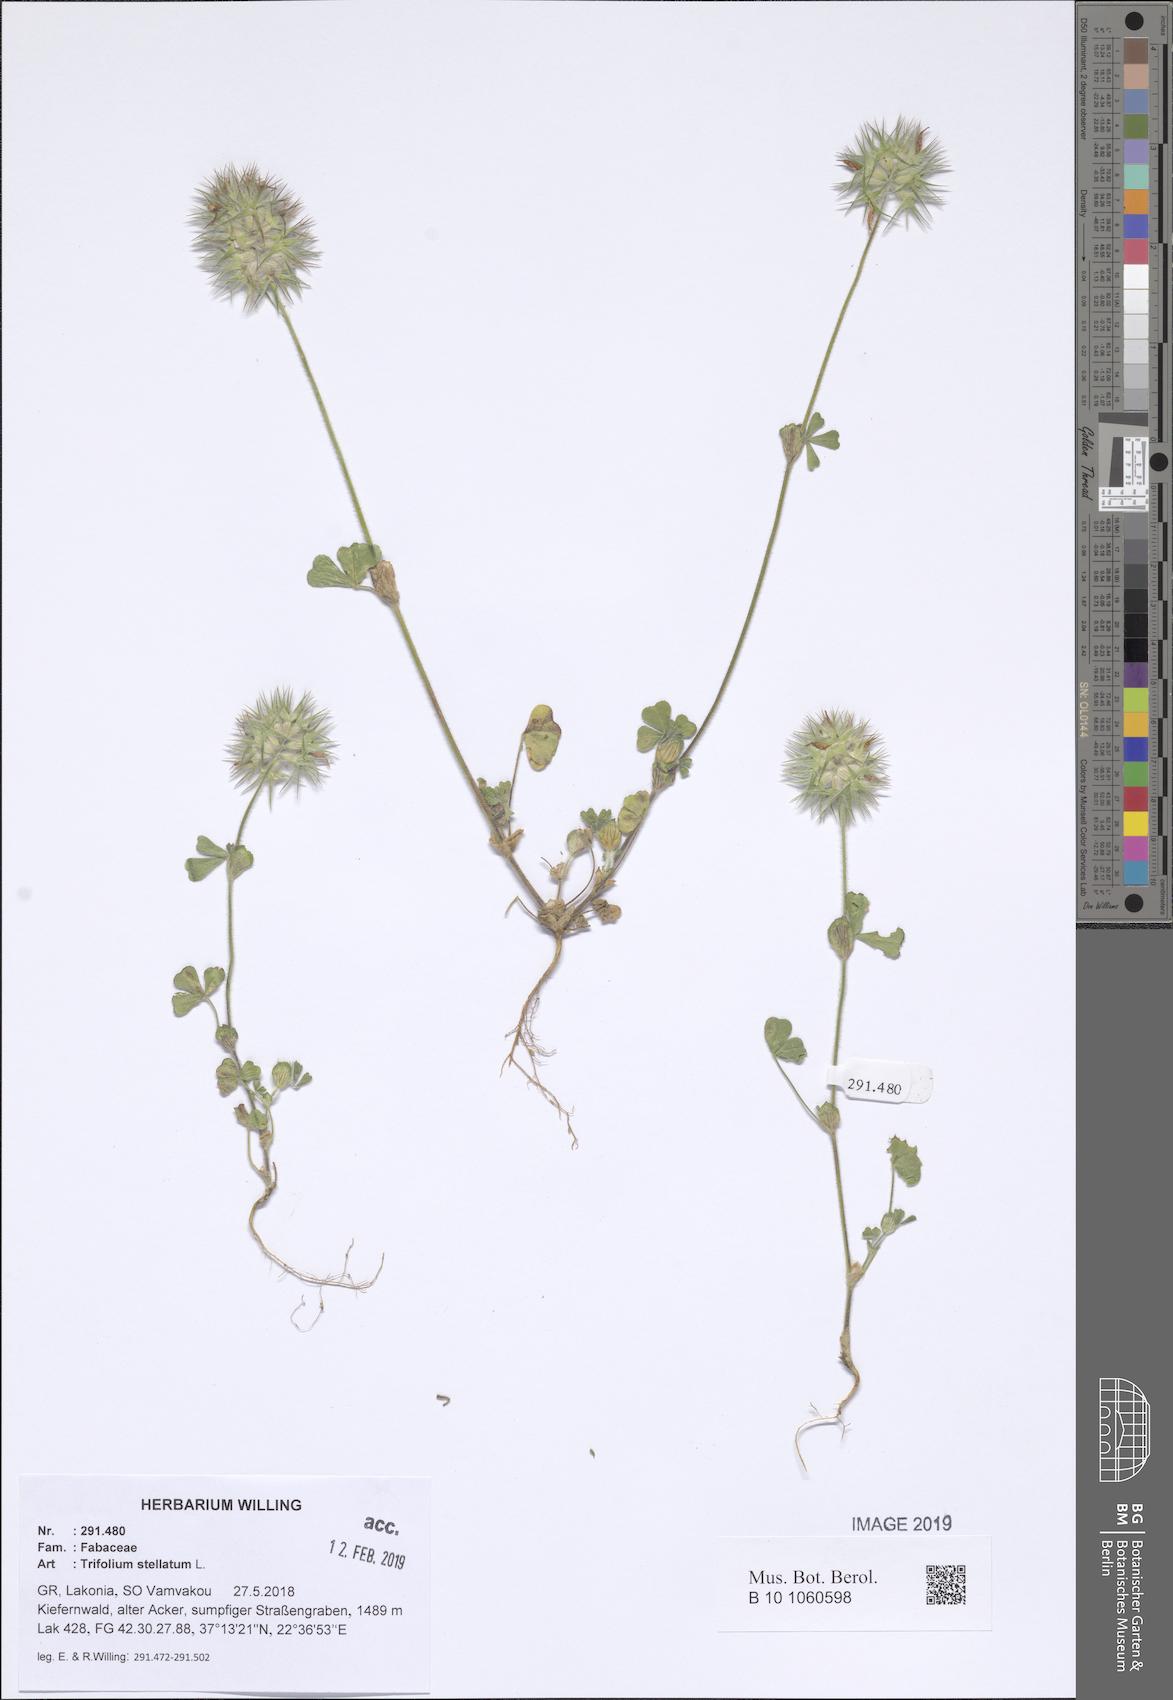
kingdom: Plantae
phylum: Tracheophyta
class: Magnoliopsida
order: Fabales
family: Fabaceae
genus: Trifolium
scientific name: Trifolium stellatum
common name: Starry clover
